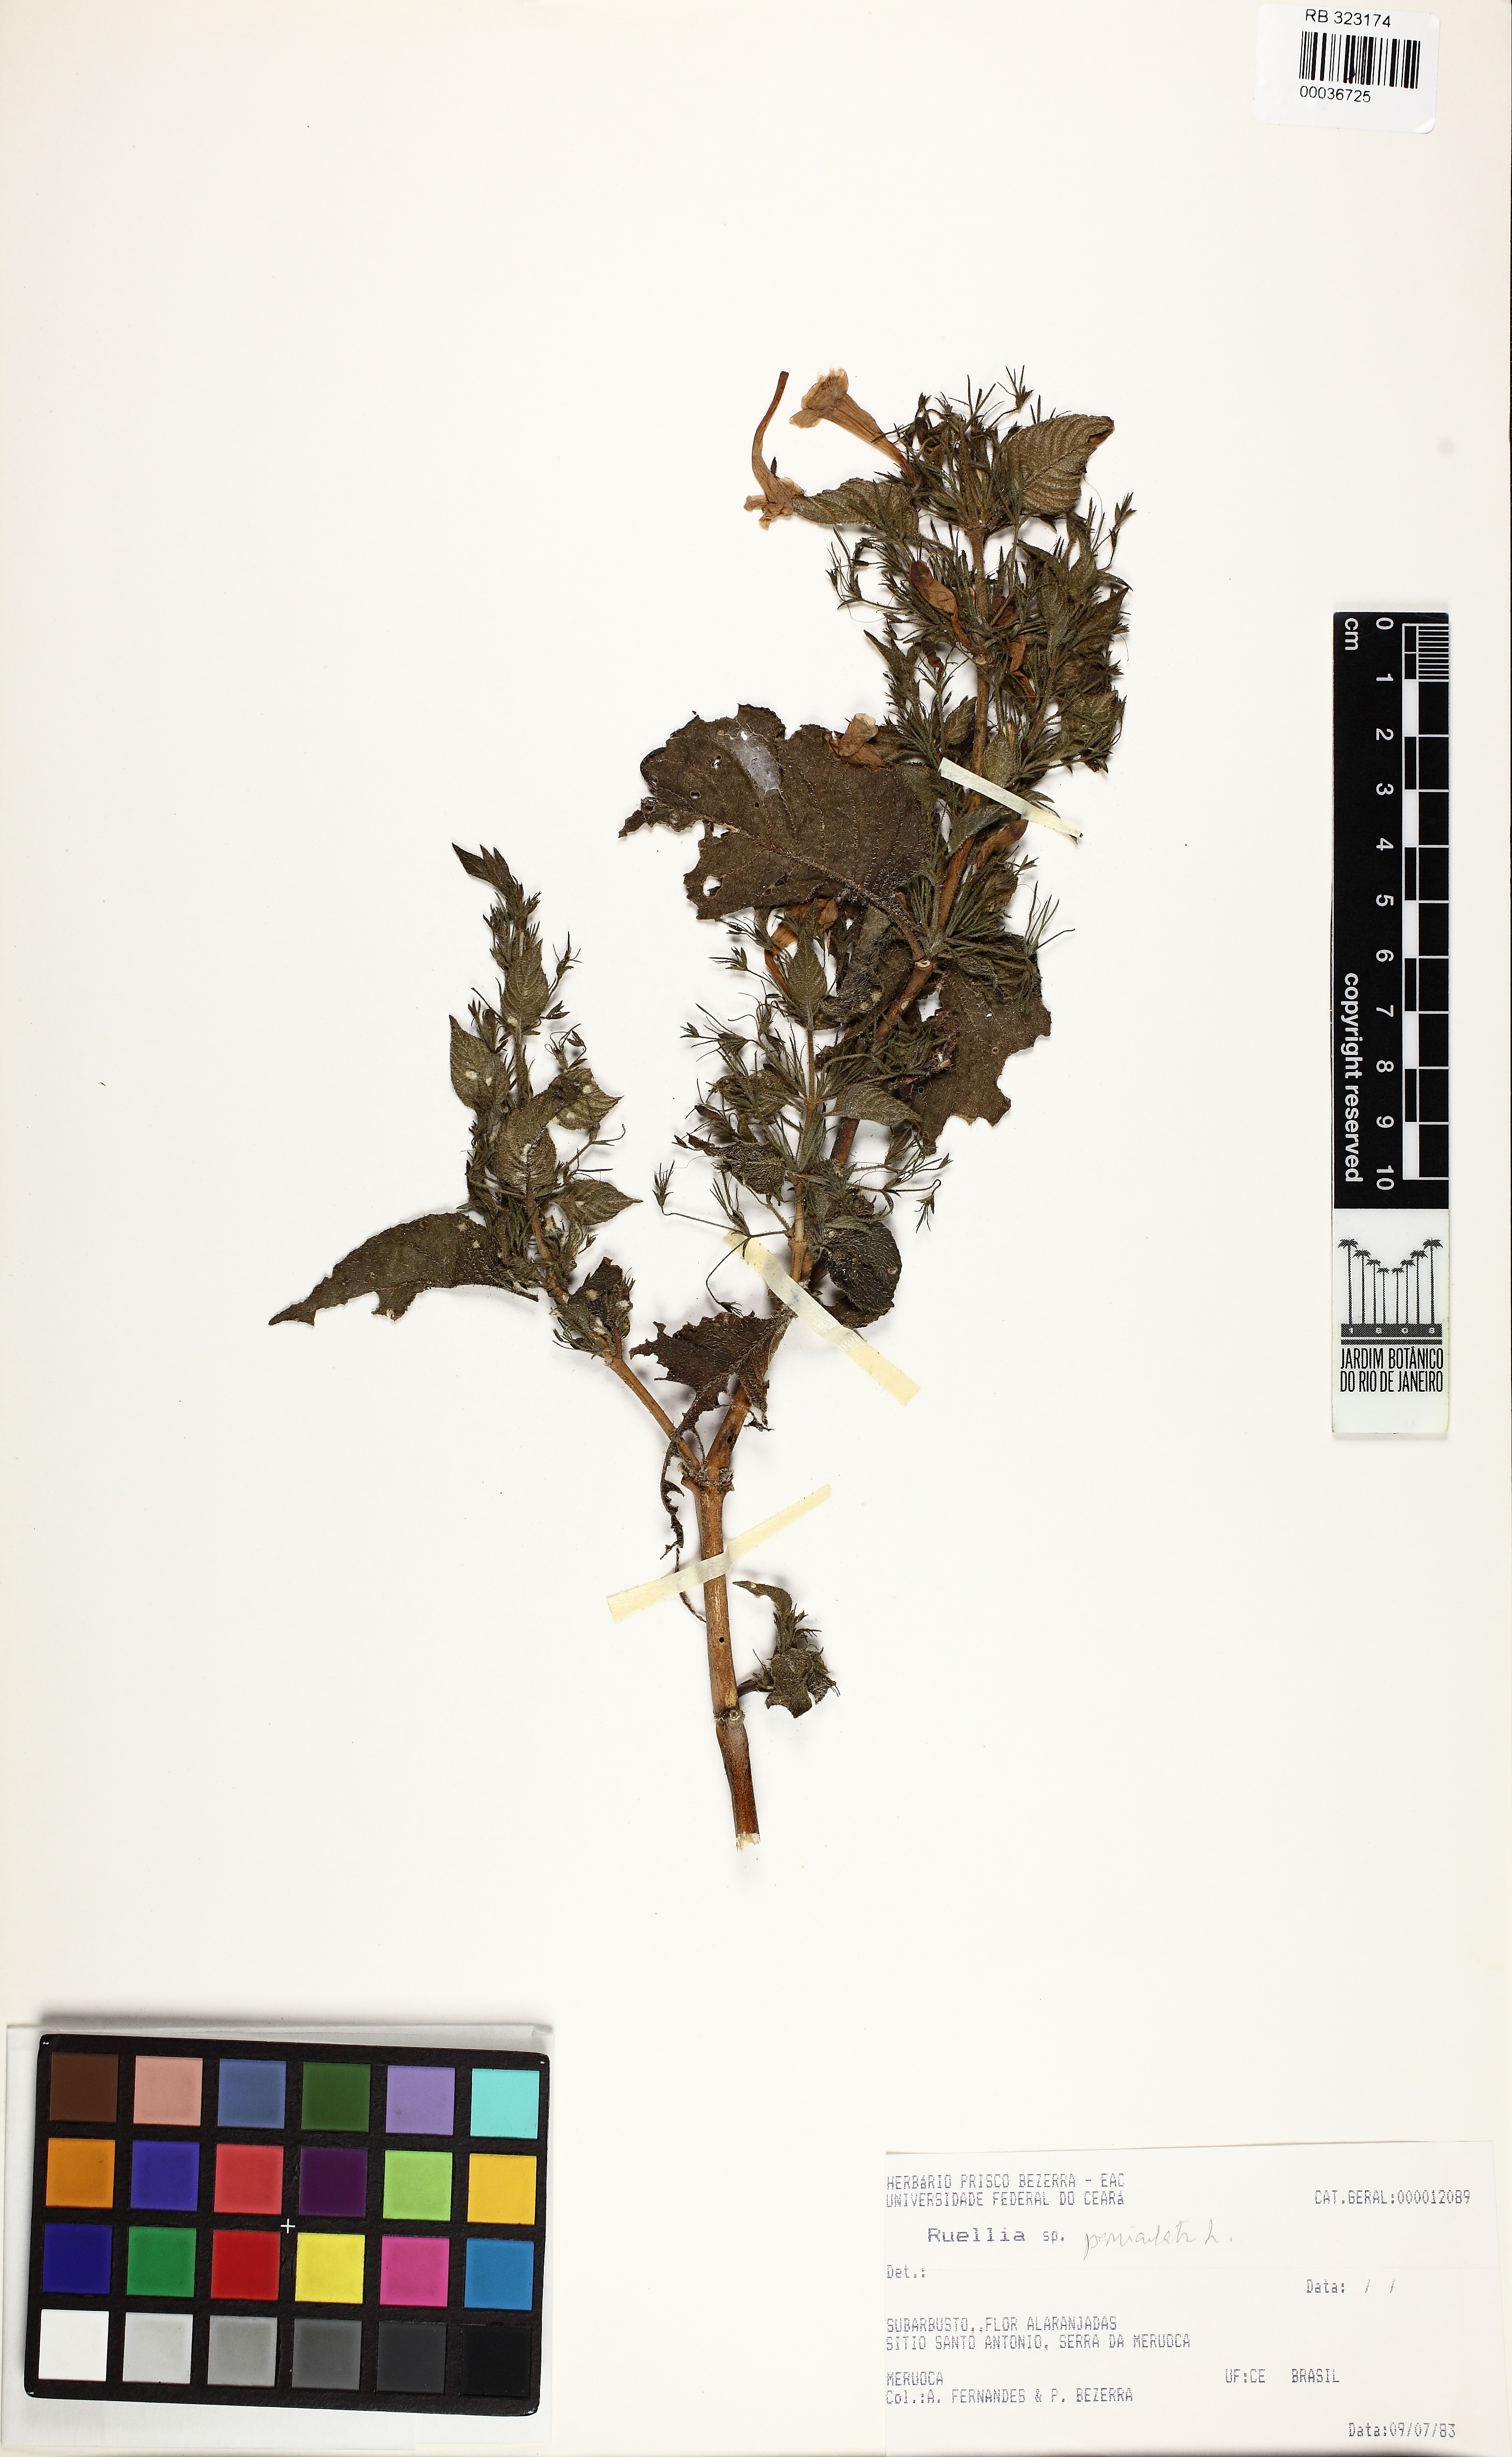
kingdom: Plantae
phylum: Tracheophyta
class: Magnoliopsida
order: Lamiales
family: Acanthaceae
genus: Ruellia
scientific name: Ruellia paniculata
